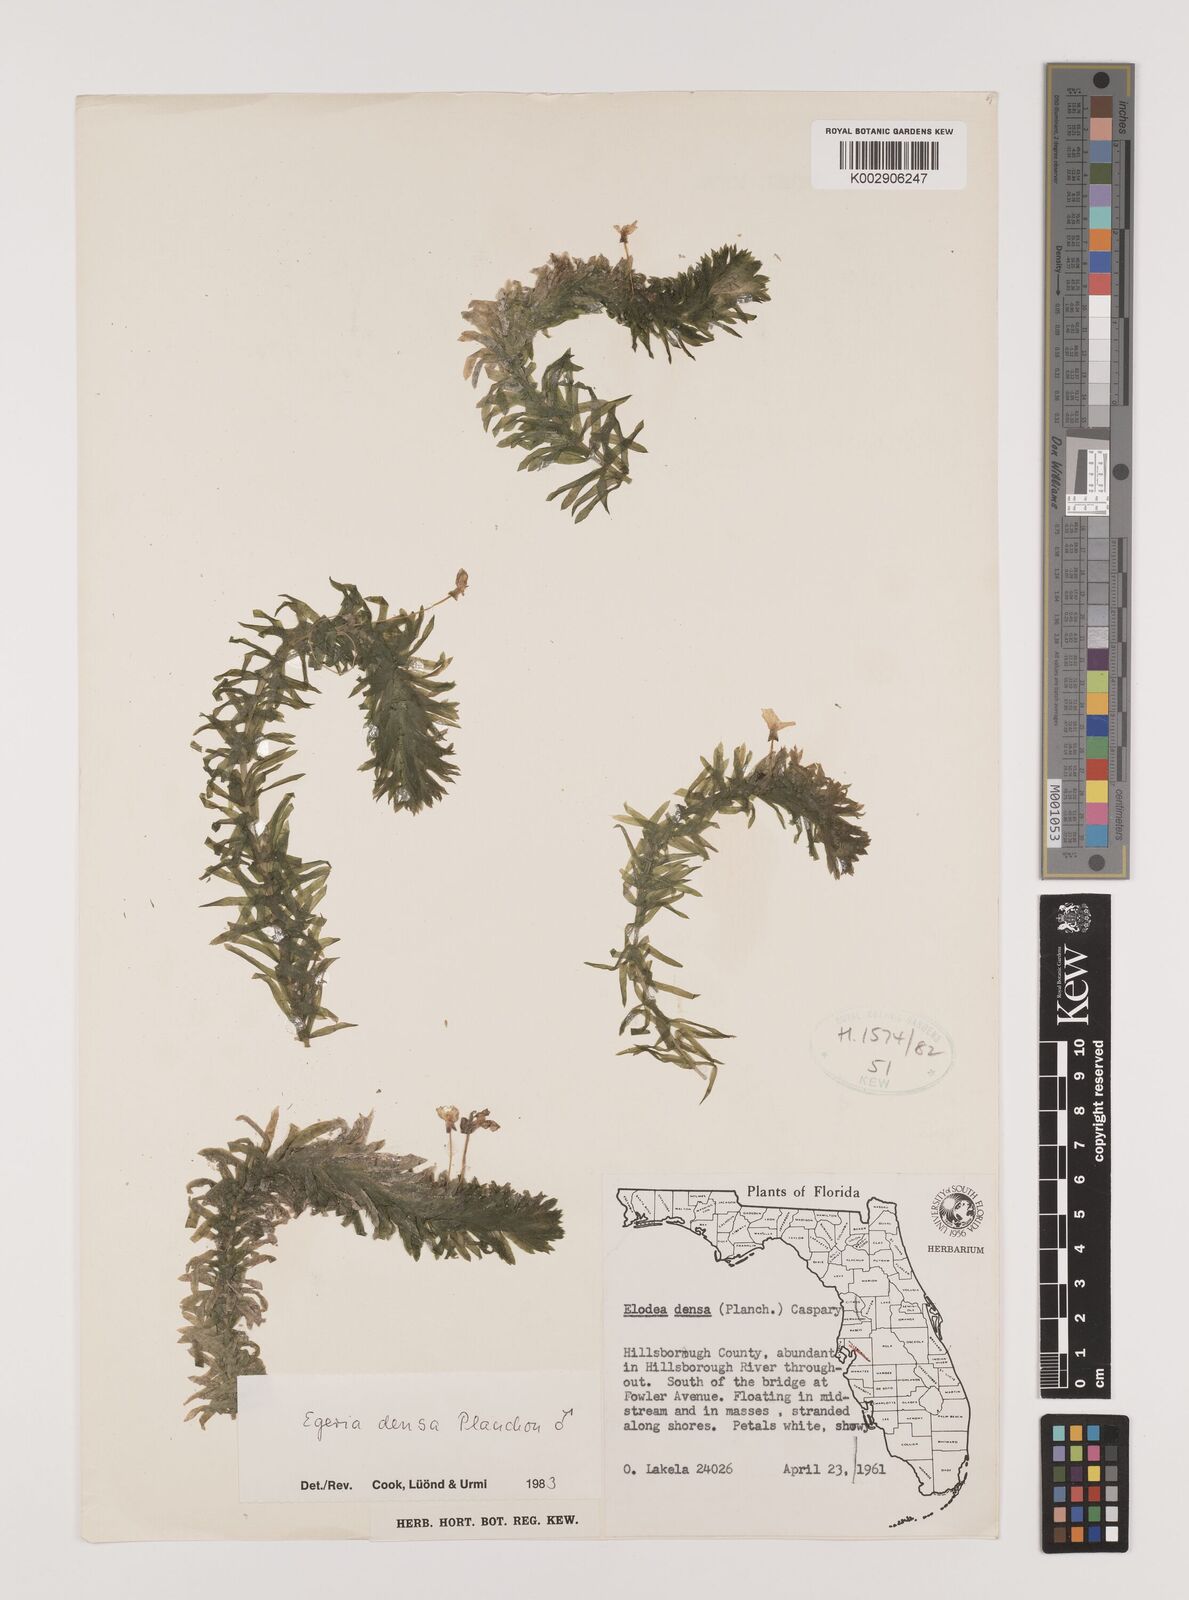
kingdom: Plantae
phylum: Tracheophyta
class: Liliopsida
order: Alismatales
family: Hydrocharitaceae
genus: Elodea
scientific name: Elodea densa
